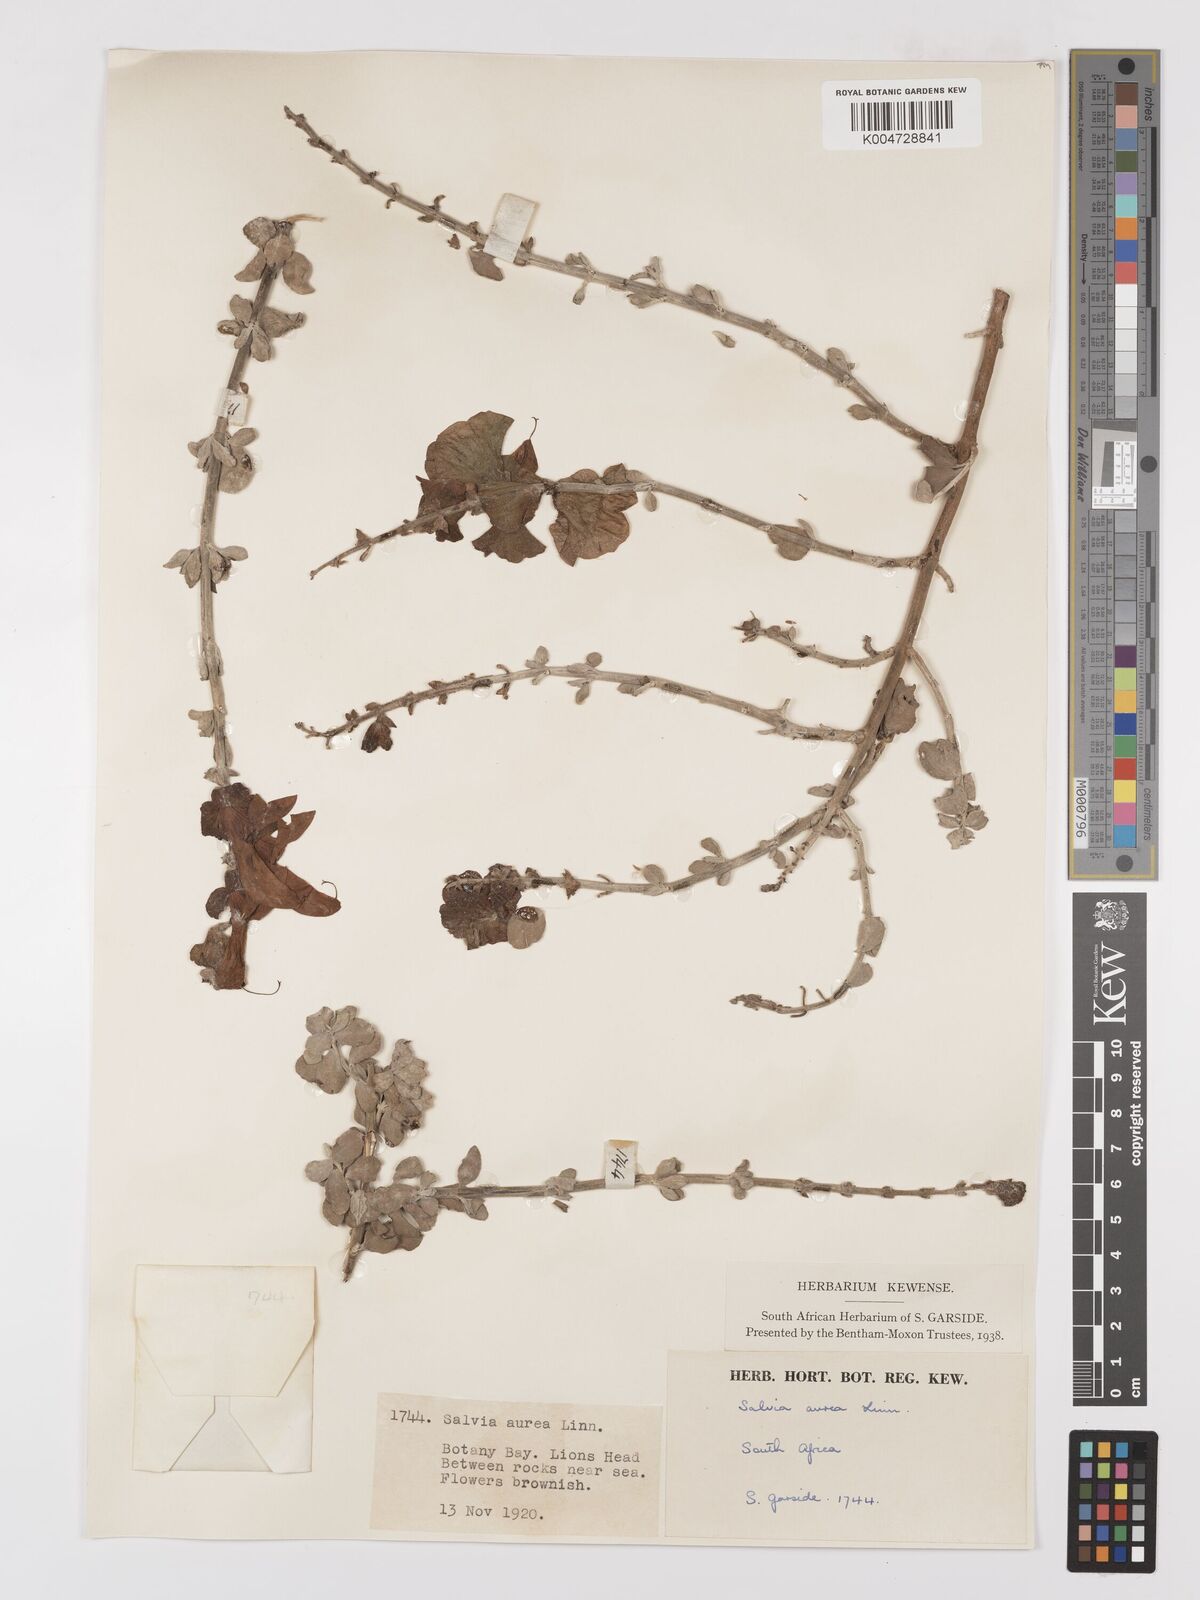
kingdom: Plantae
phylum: Tracheophyta
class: Magnoliopsida
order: Lamiales
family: Lamiaceae
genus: Salvia
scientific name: Salvia aurea
